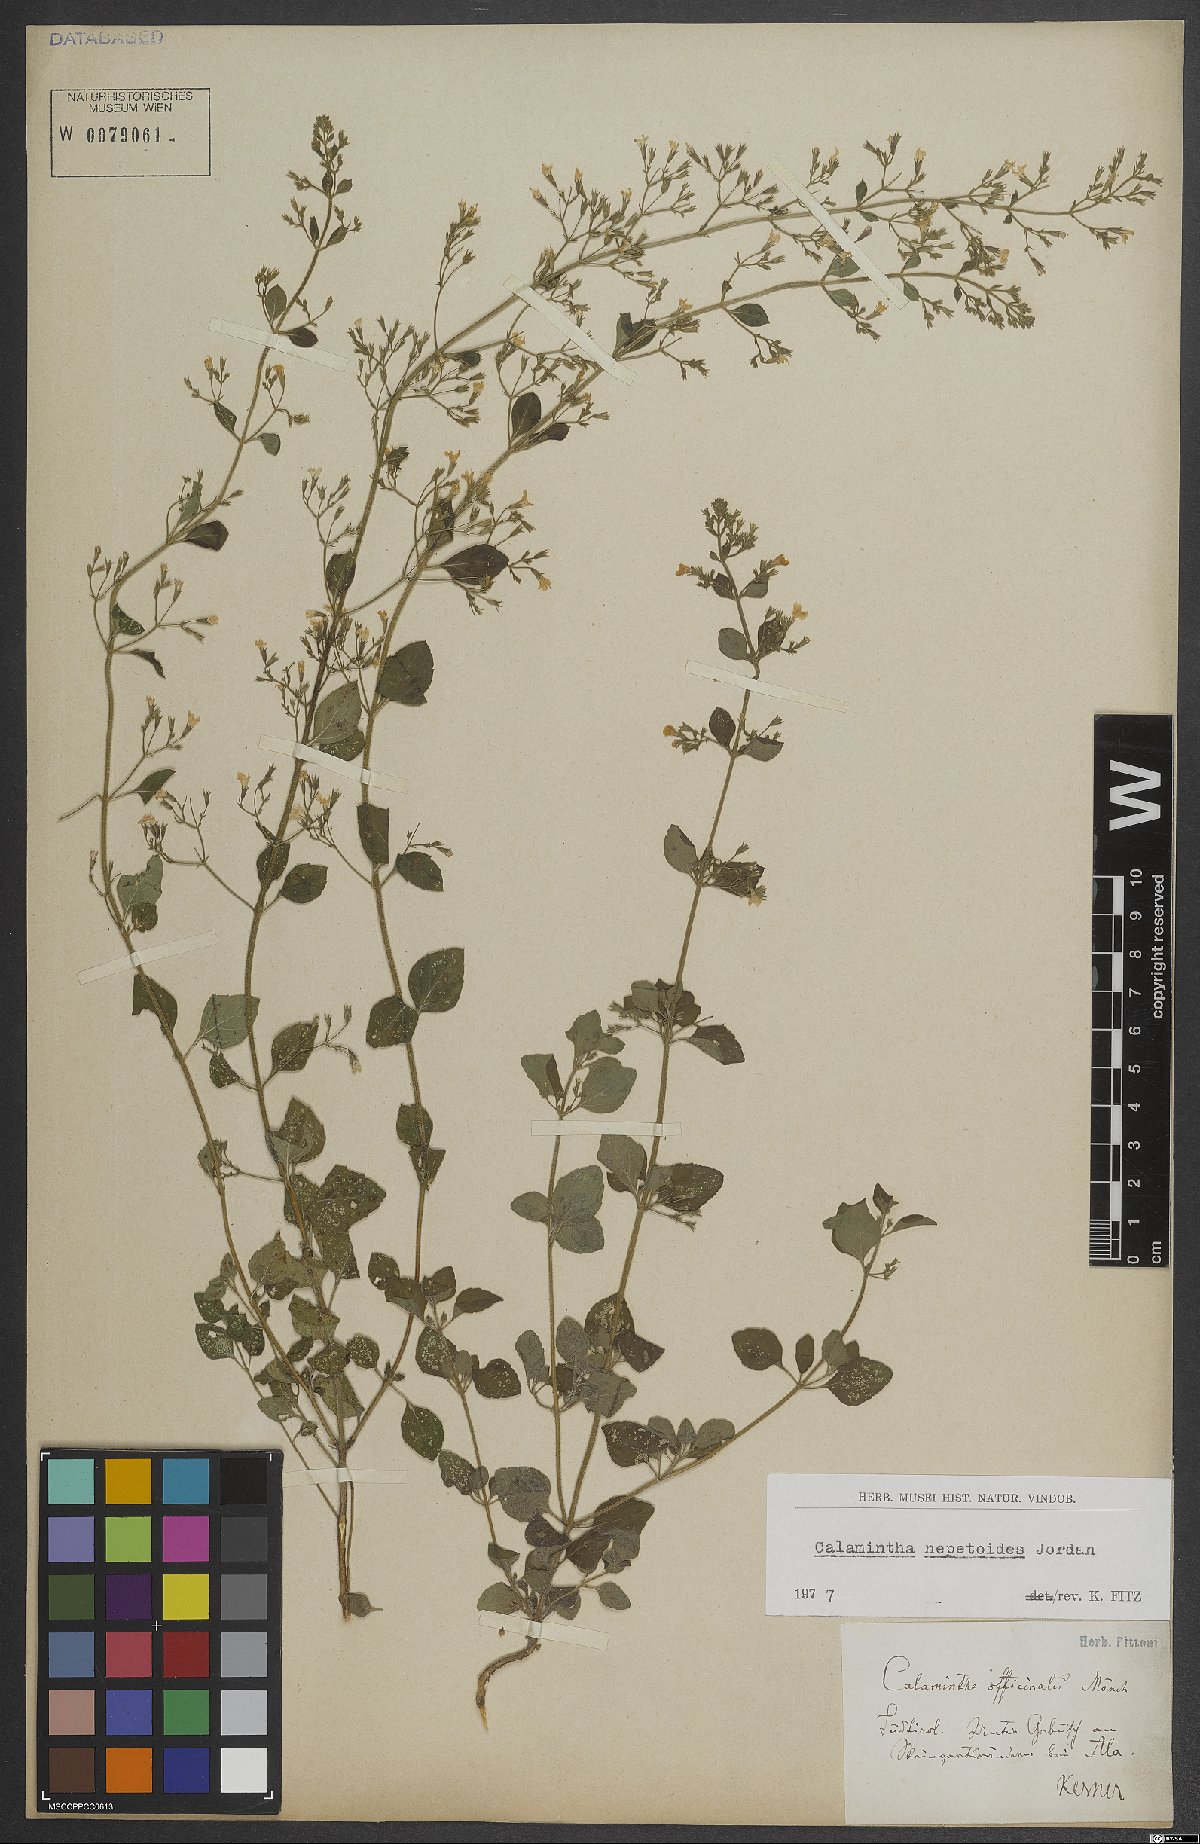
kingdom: Plantae
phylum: Tracheophyta
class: Magnoliopsida
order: Lamiales
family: Lamiaceae
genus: Clinopodium
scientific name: Clinopodium nepeta
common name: Lesser calamint
